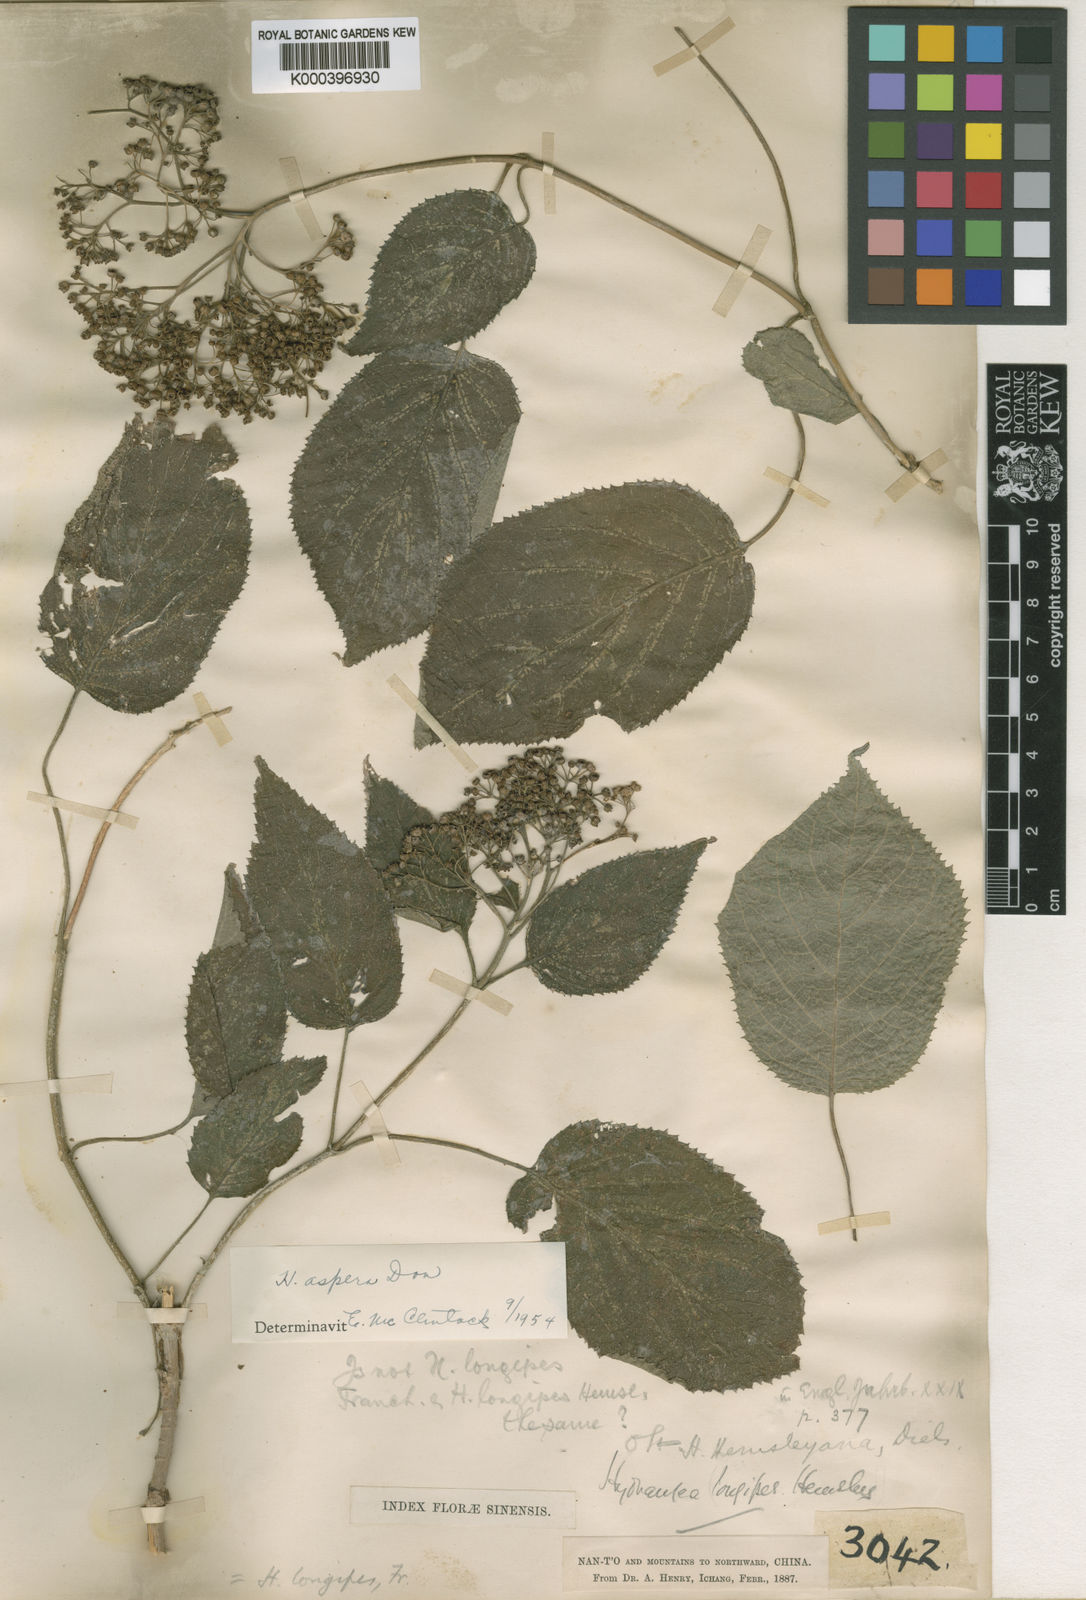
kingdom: Plantae
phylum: Tracheophyta
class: Magnoliopsida
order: Cornales
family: Hydrangeaceae
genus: Hydrangea
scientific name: Hydrangea longipes
